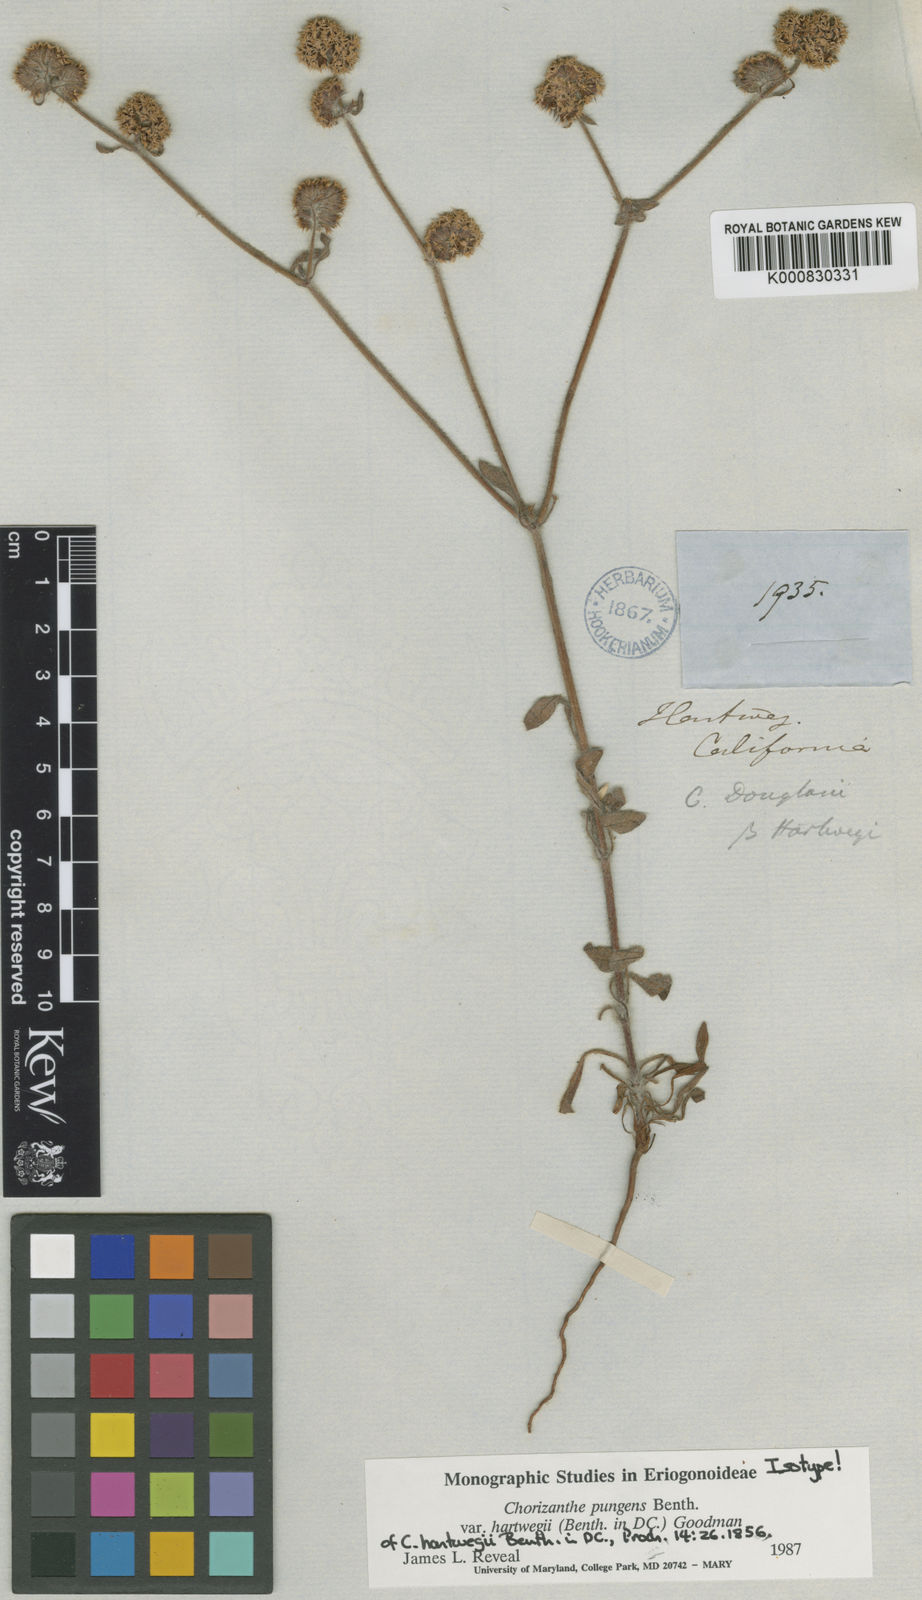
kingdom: Plantae
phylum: Tracheophyta
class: Magnoliopsida
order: Caryophyllales
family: Polygonaceae
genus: Chorizanthe
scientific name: Chorizanthe pungens
